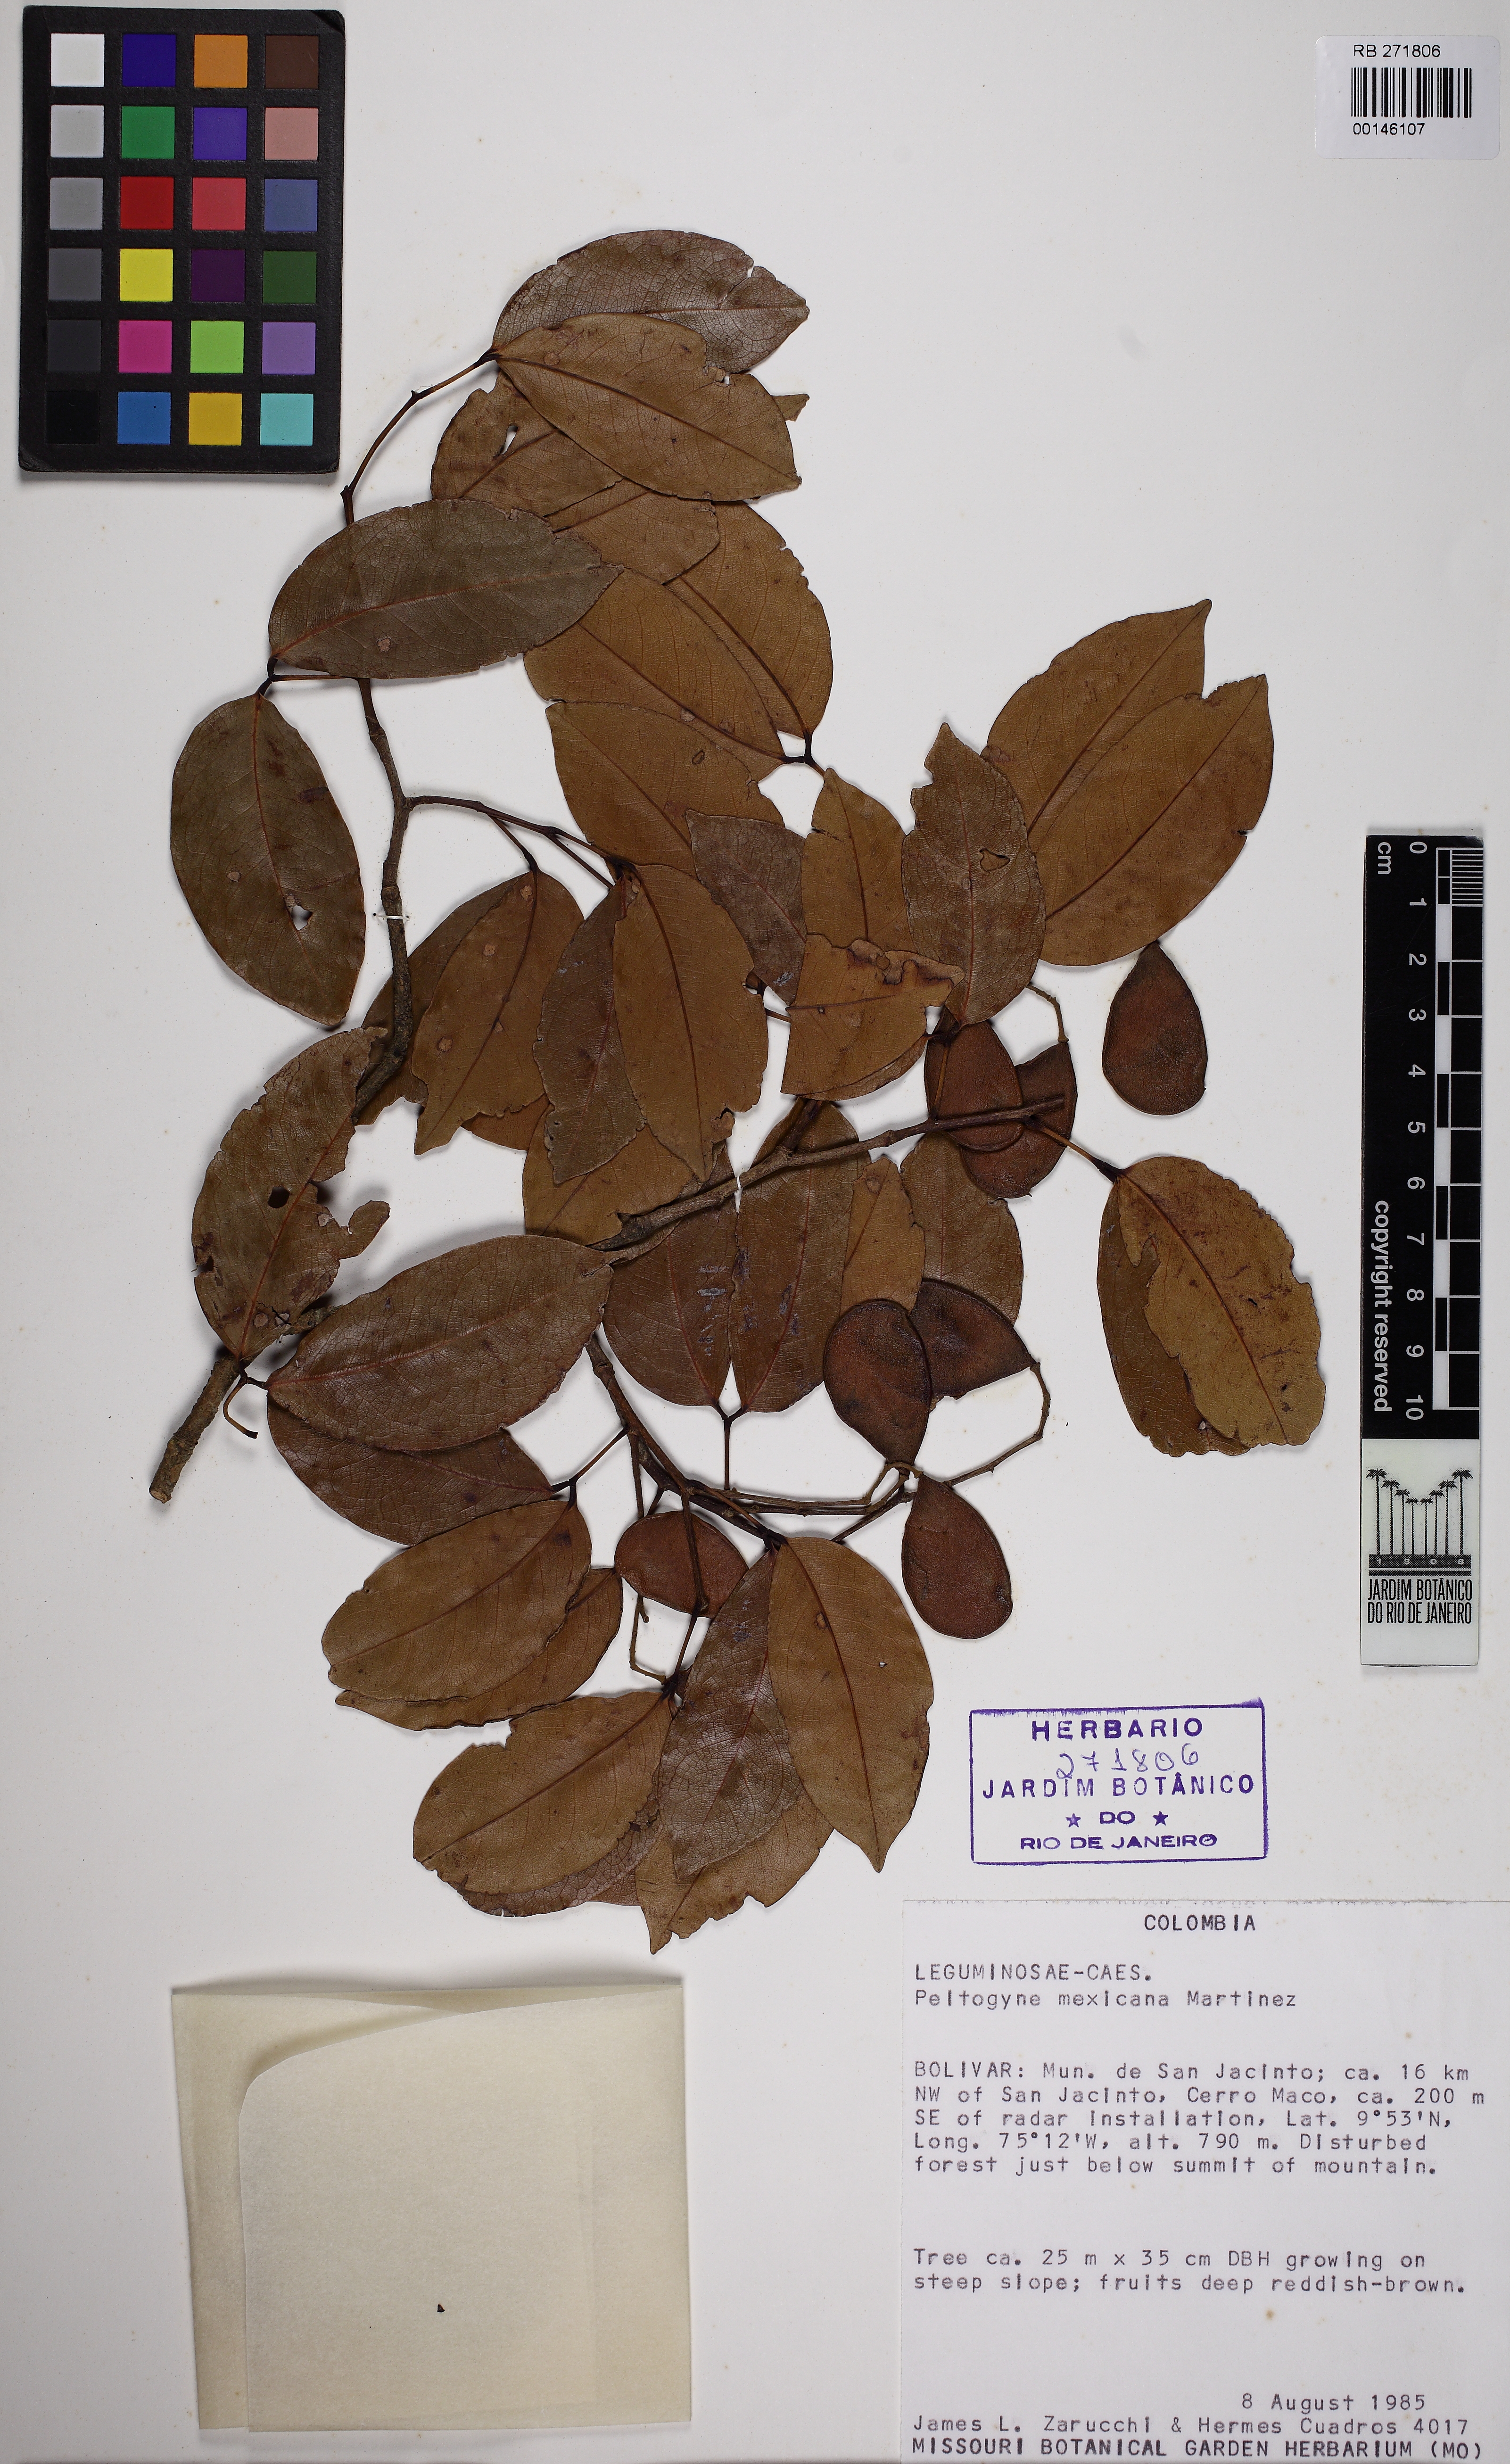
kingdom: Plantae
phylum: Tracheophyta
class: Magnoliopsida
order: Fabales
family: Fabaceae
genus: Peltogyne
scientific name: Peltogyne mexicana
